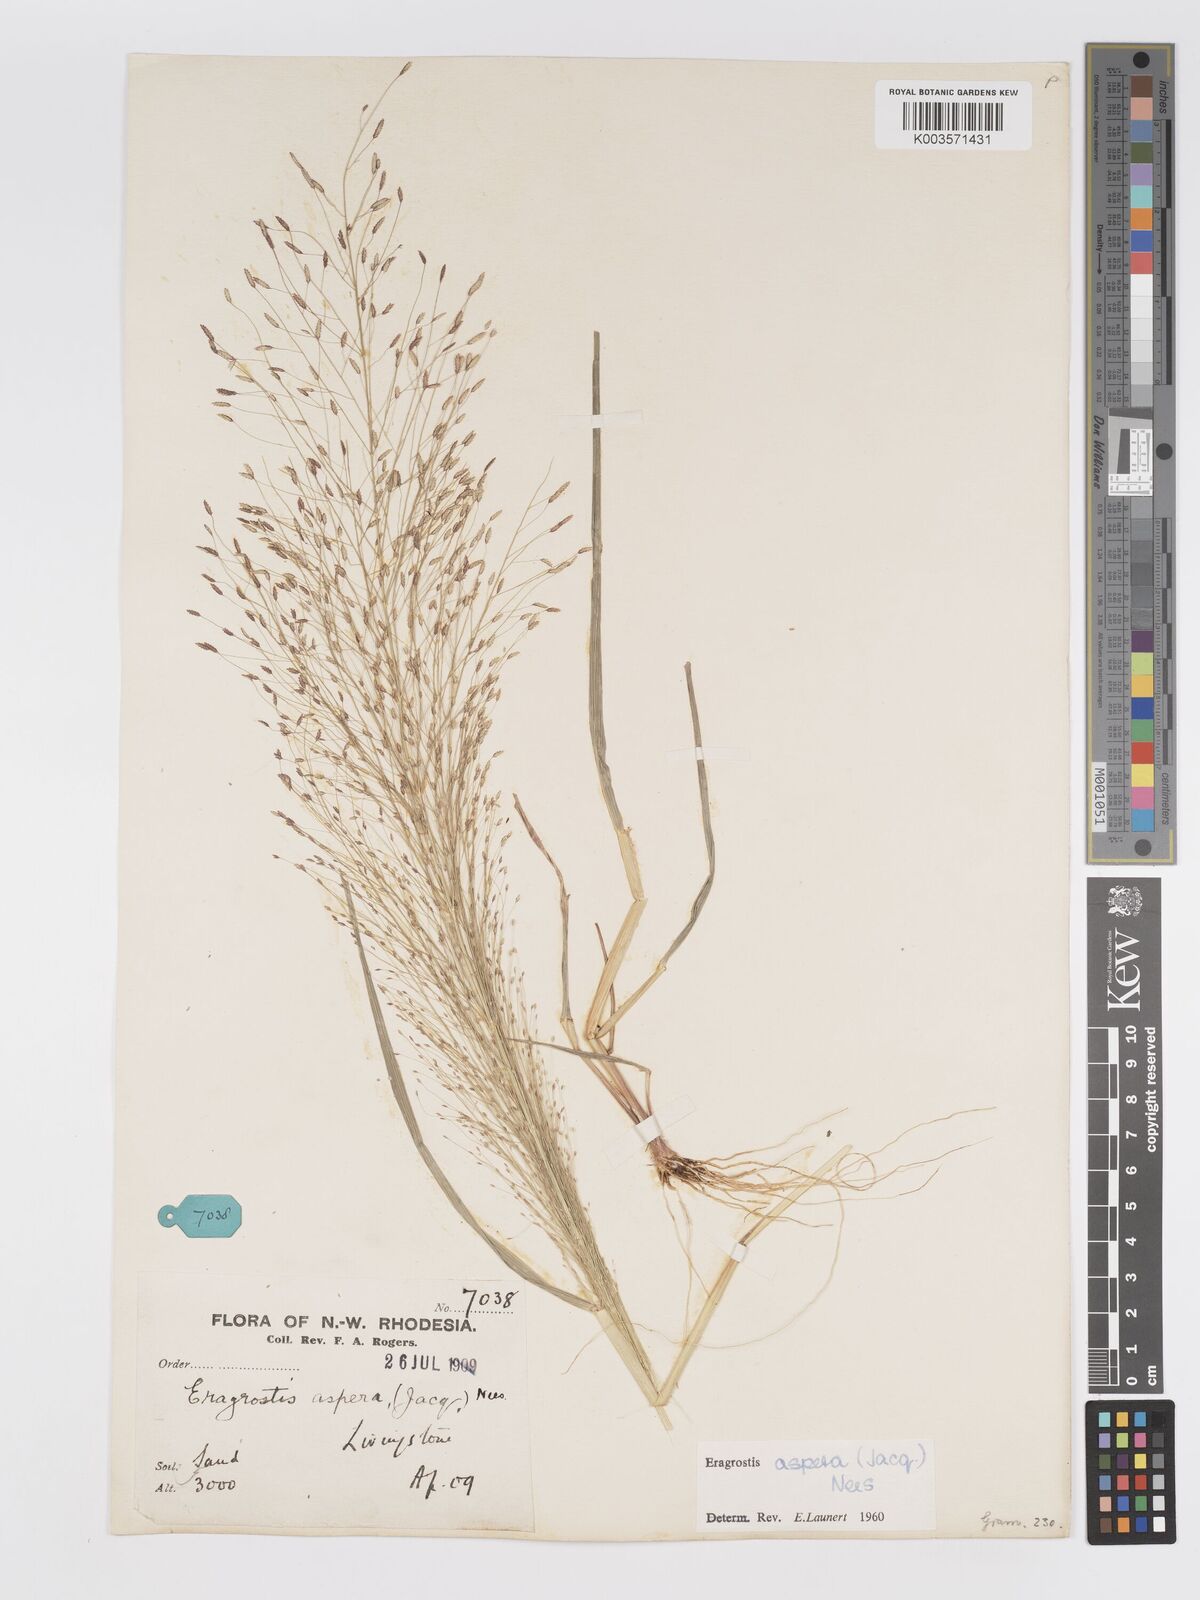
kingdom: Plantae
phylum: Tracheophyta
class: Liliopsida
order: Poales
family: Poaceae
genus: Eragrostis
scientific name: Eragrostis aspera
